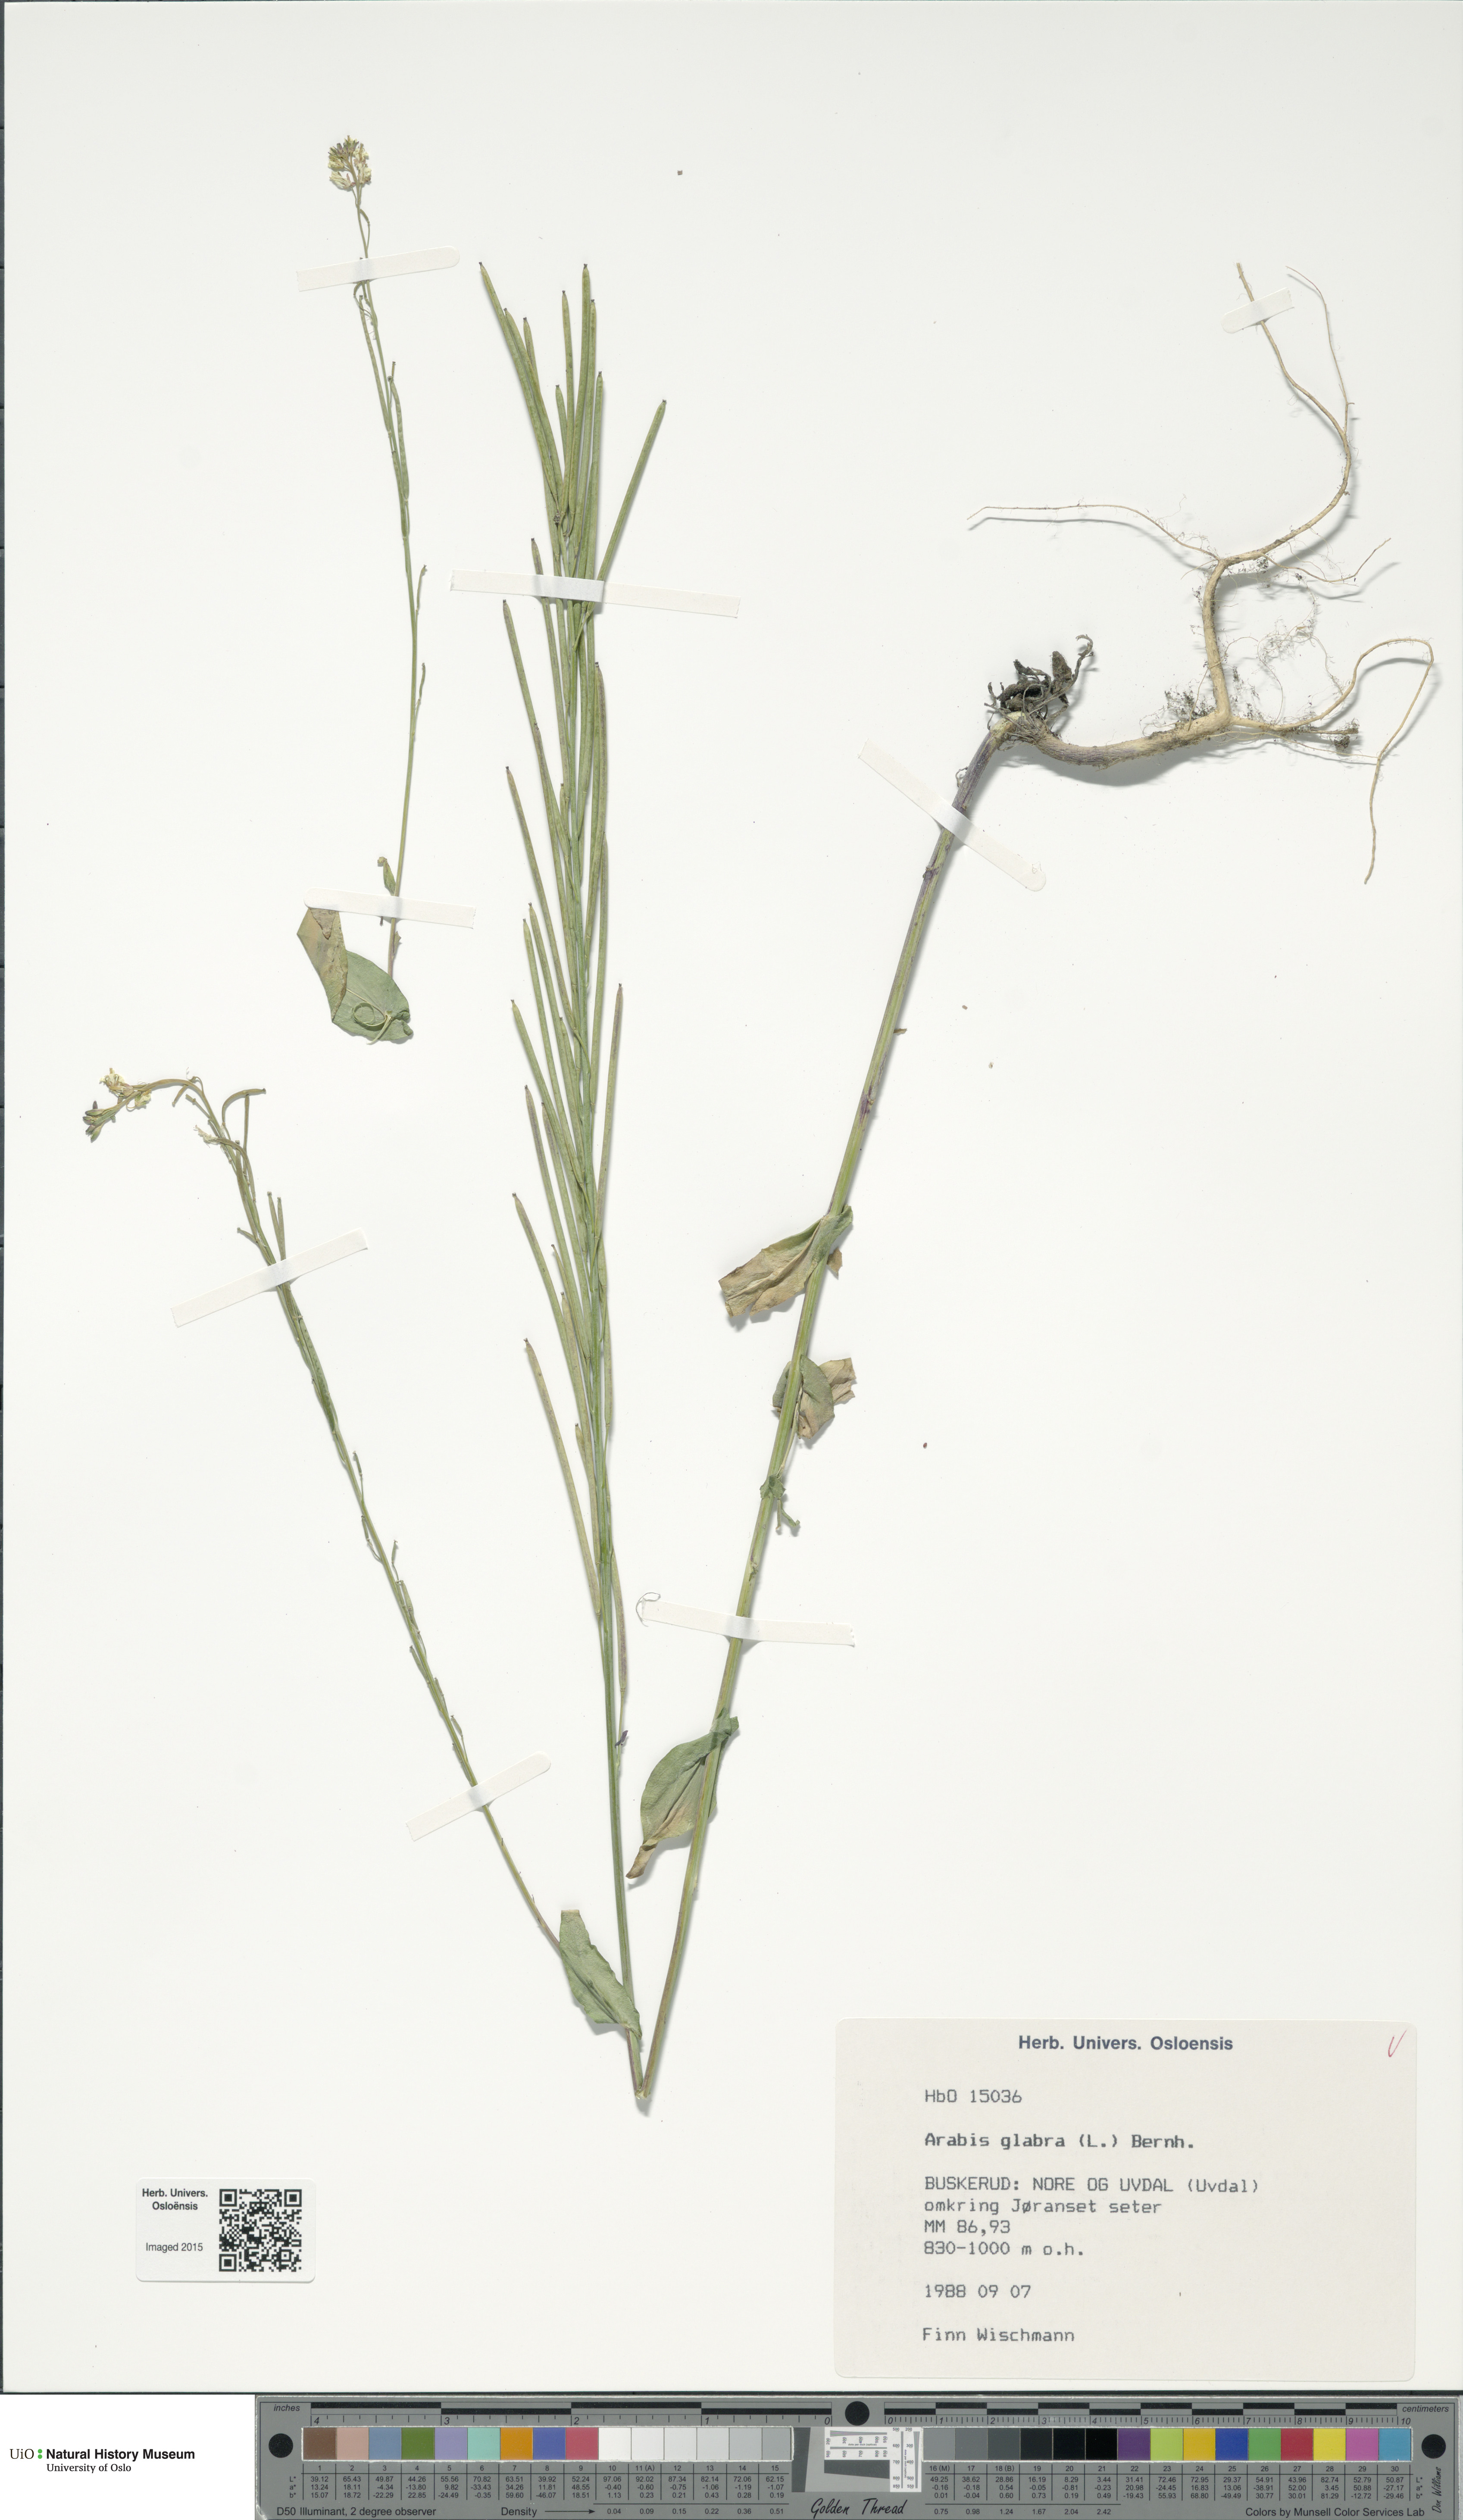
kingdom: Plantae
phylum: Tracheophyta
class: Magnoliopsida
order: Brassicales
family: Brassicaceae
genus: Turritis
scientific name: Turritis glabra
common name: Tower rockcress
